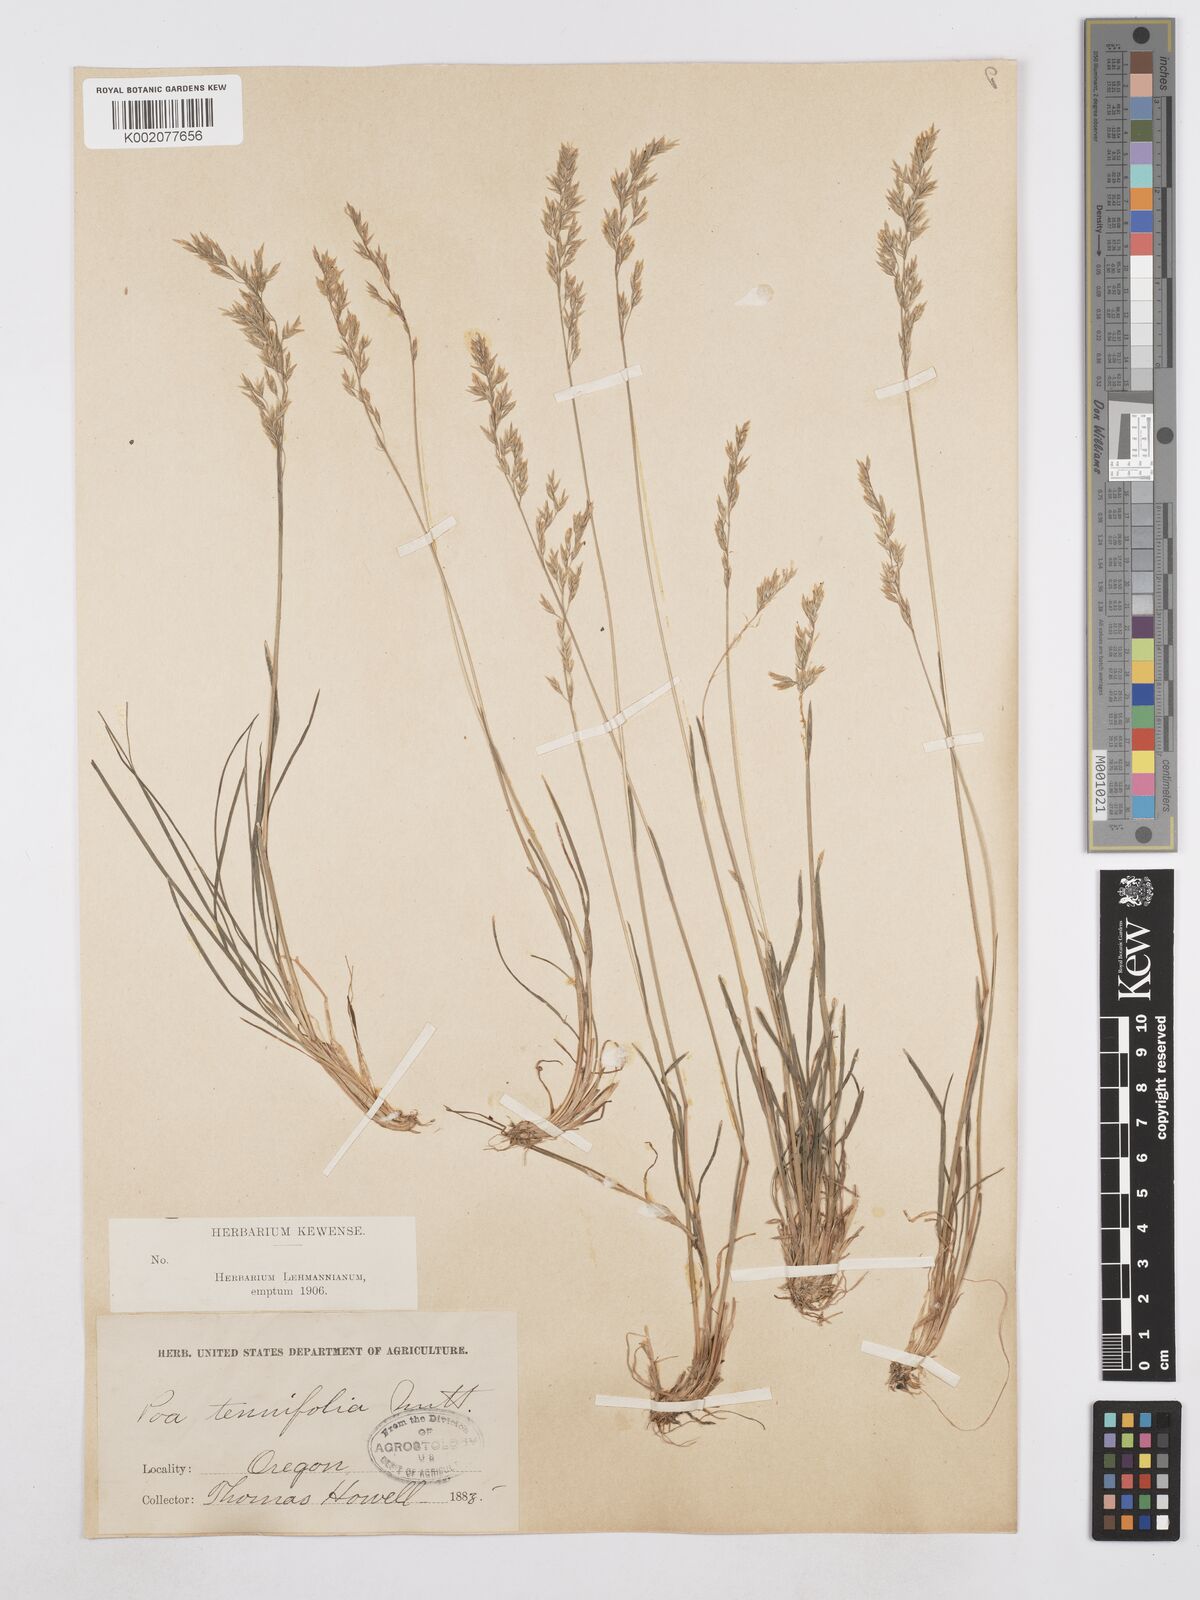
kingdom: Plantae
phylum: Tracheophyta
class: Liliopsida
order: Poales
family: Poaceae
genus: Poa
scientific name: Poa secunda
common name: Sandberg bluegrass
